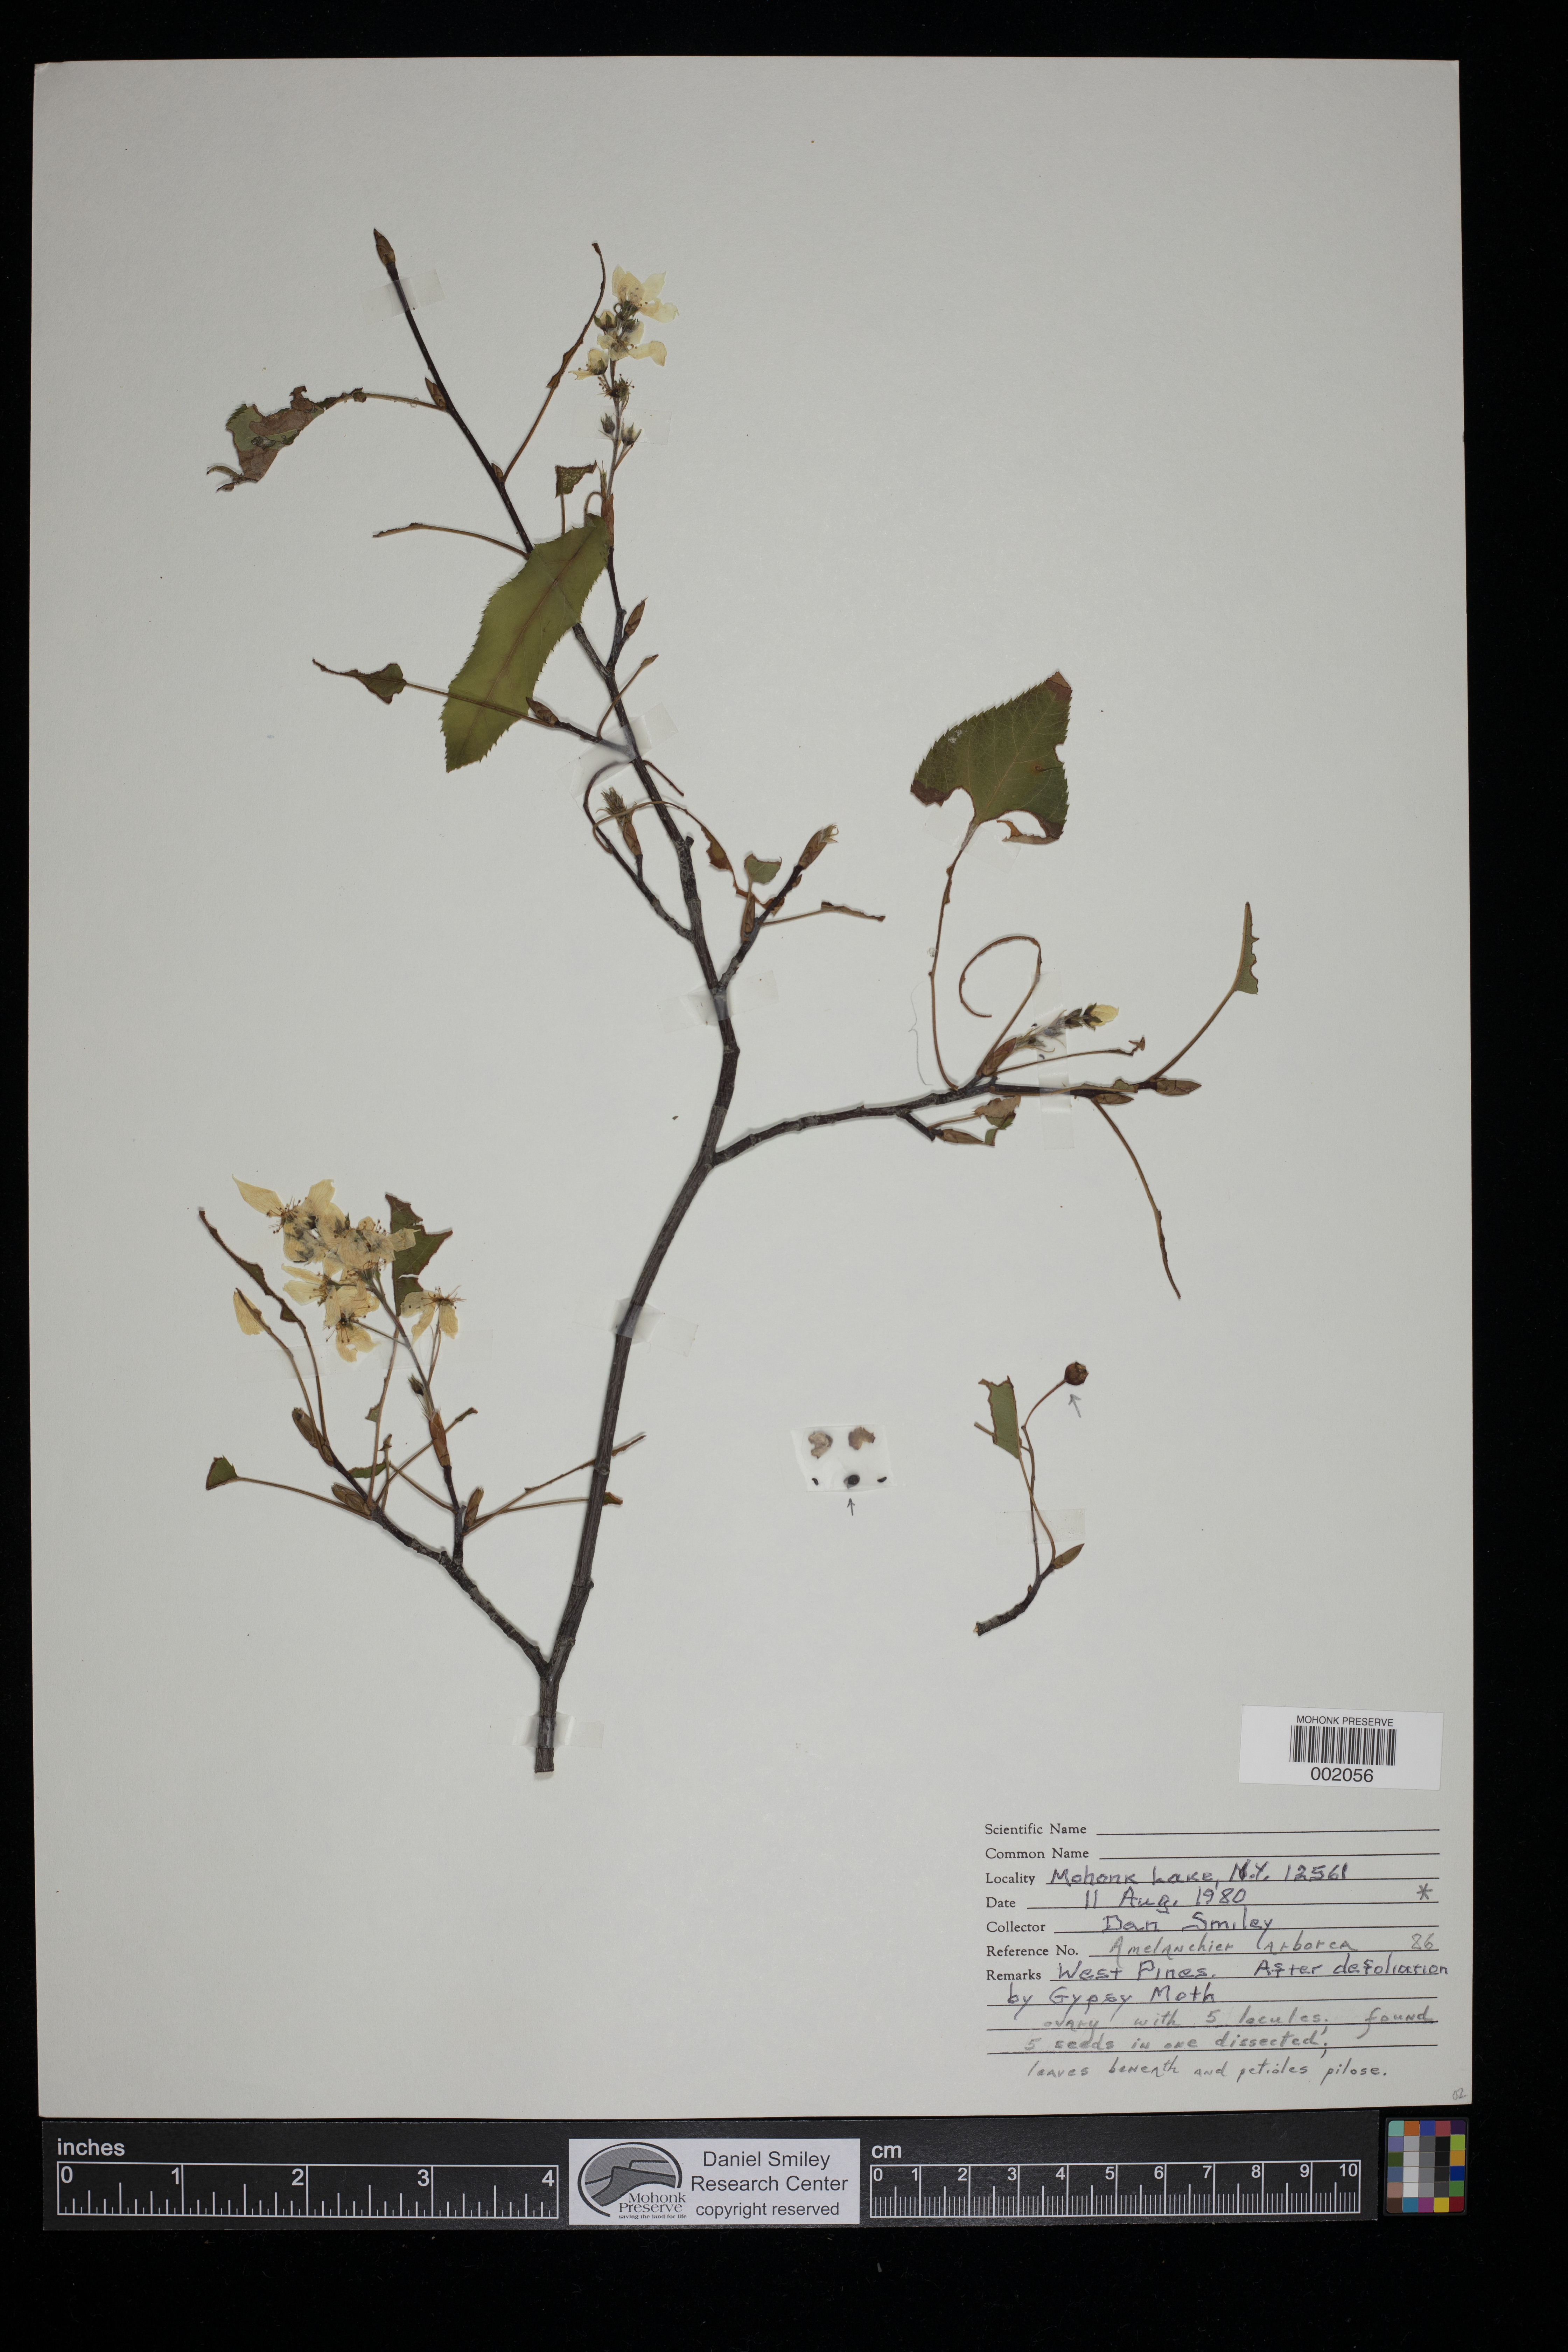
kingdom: Plantae
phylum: Tracheophyta
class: Magnoliopsida
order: Rosales
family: Rosaceae
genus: Amelanchier
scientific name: Amelanchier arborea
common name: Downy serviceberry
